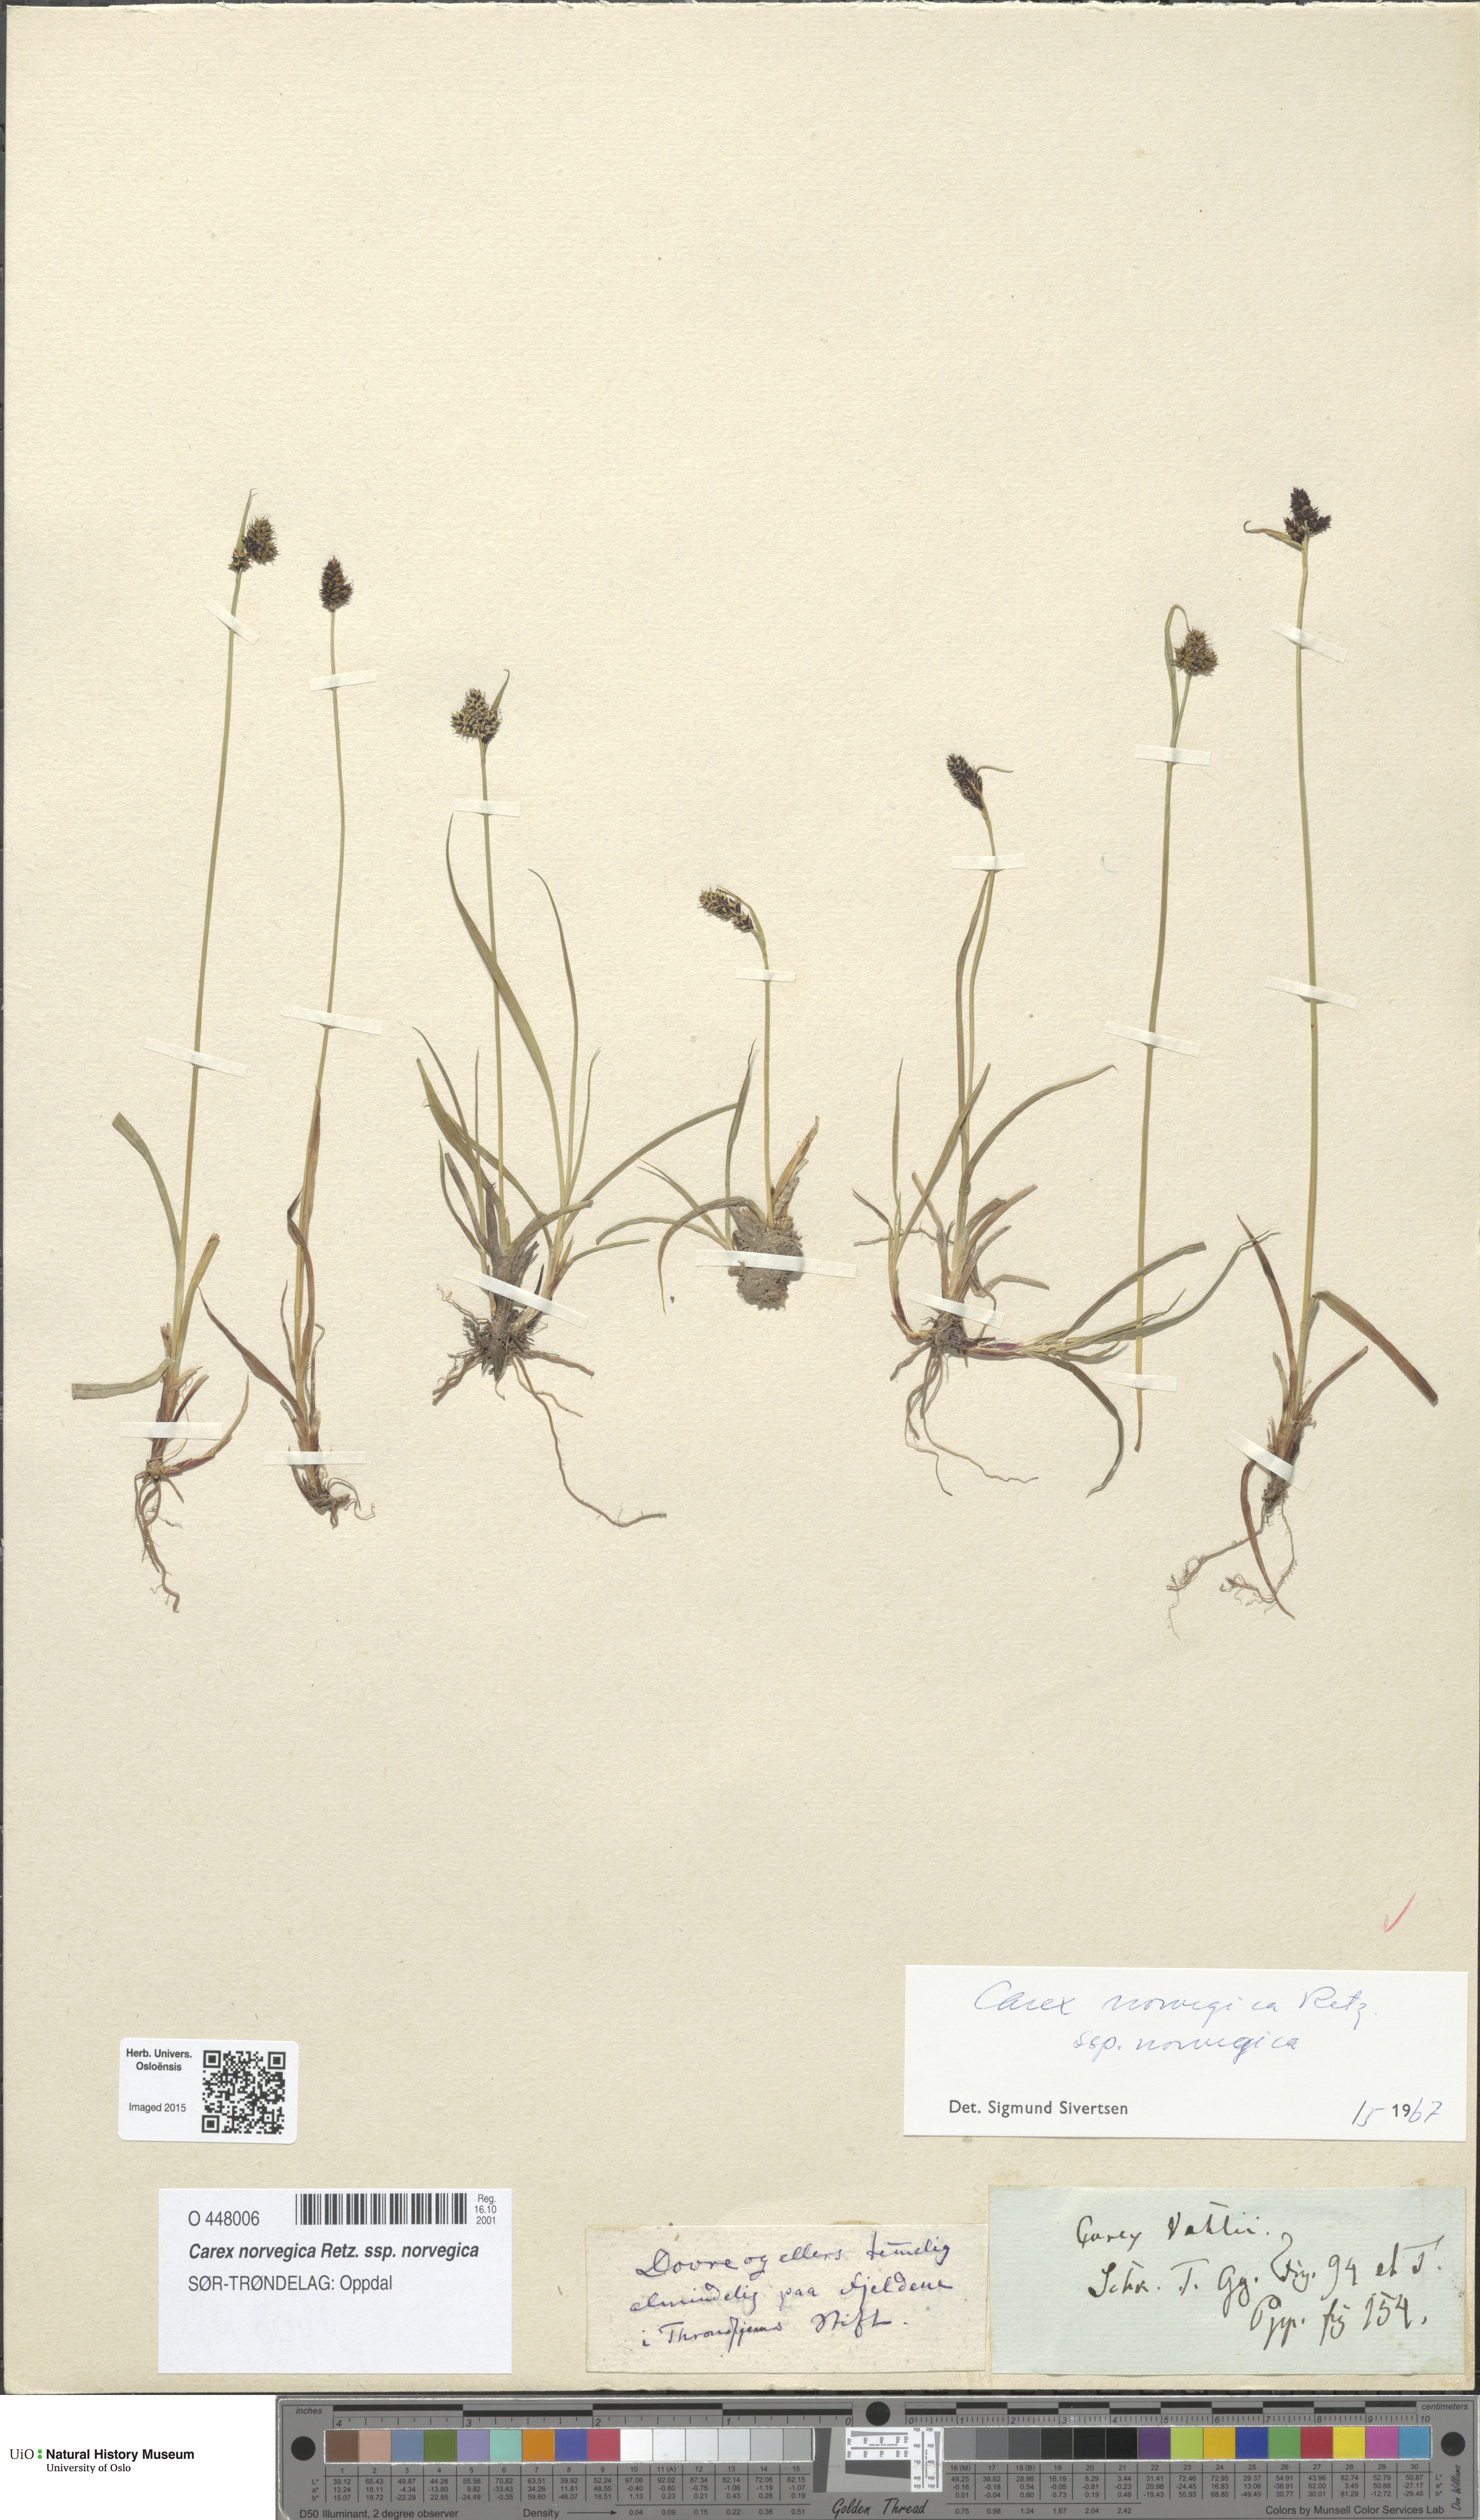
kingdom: Plantae
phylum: Tracheophyta
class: Liliopsida
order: Poales
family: Cyperaceae
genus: Carex
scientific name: Carex norvegica
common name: Close-headed alpine-sedge
